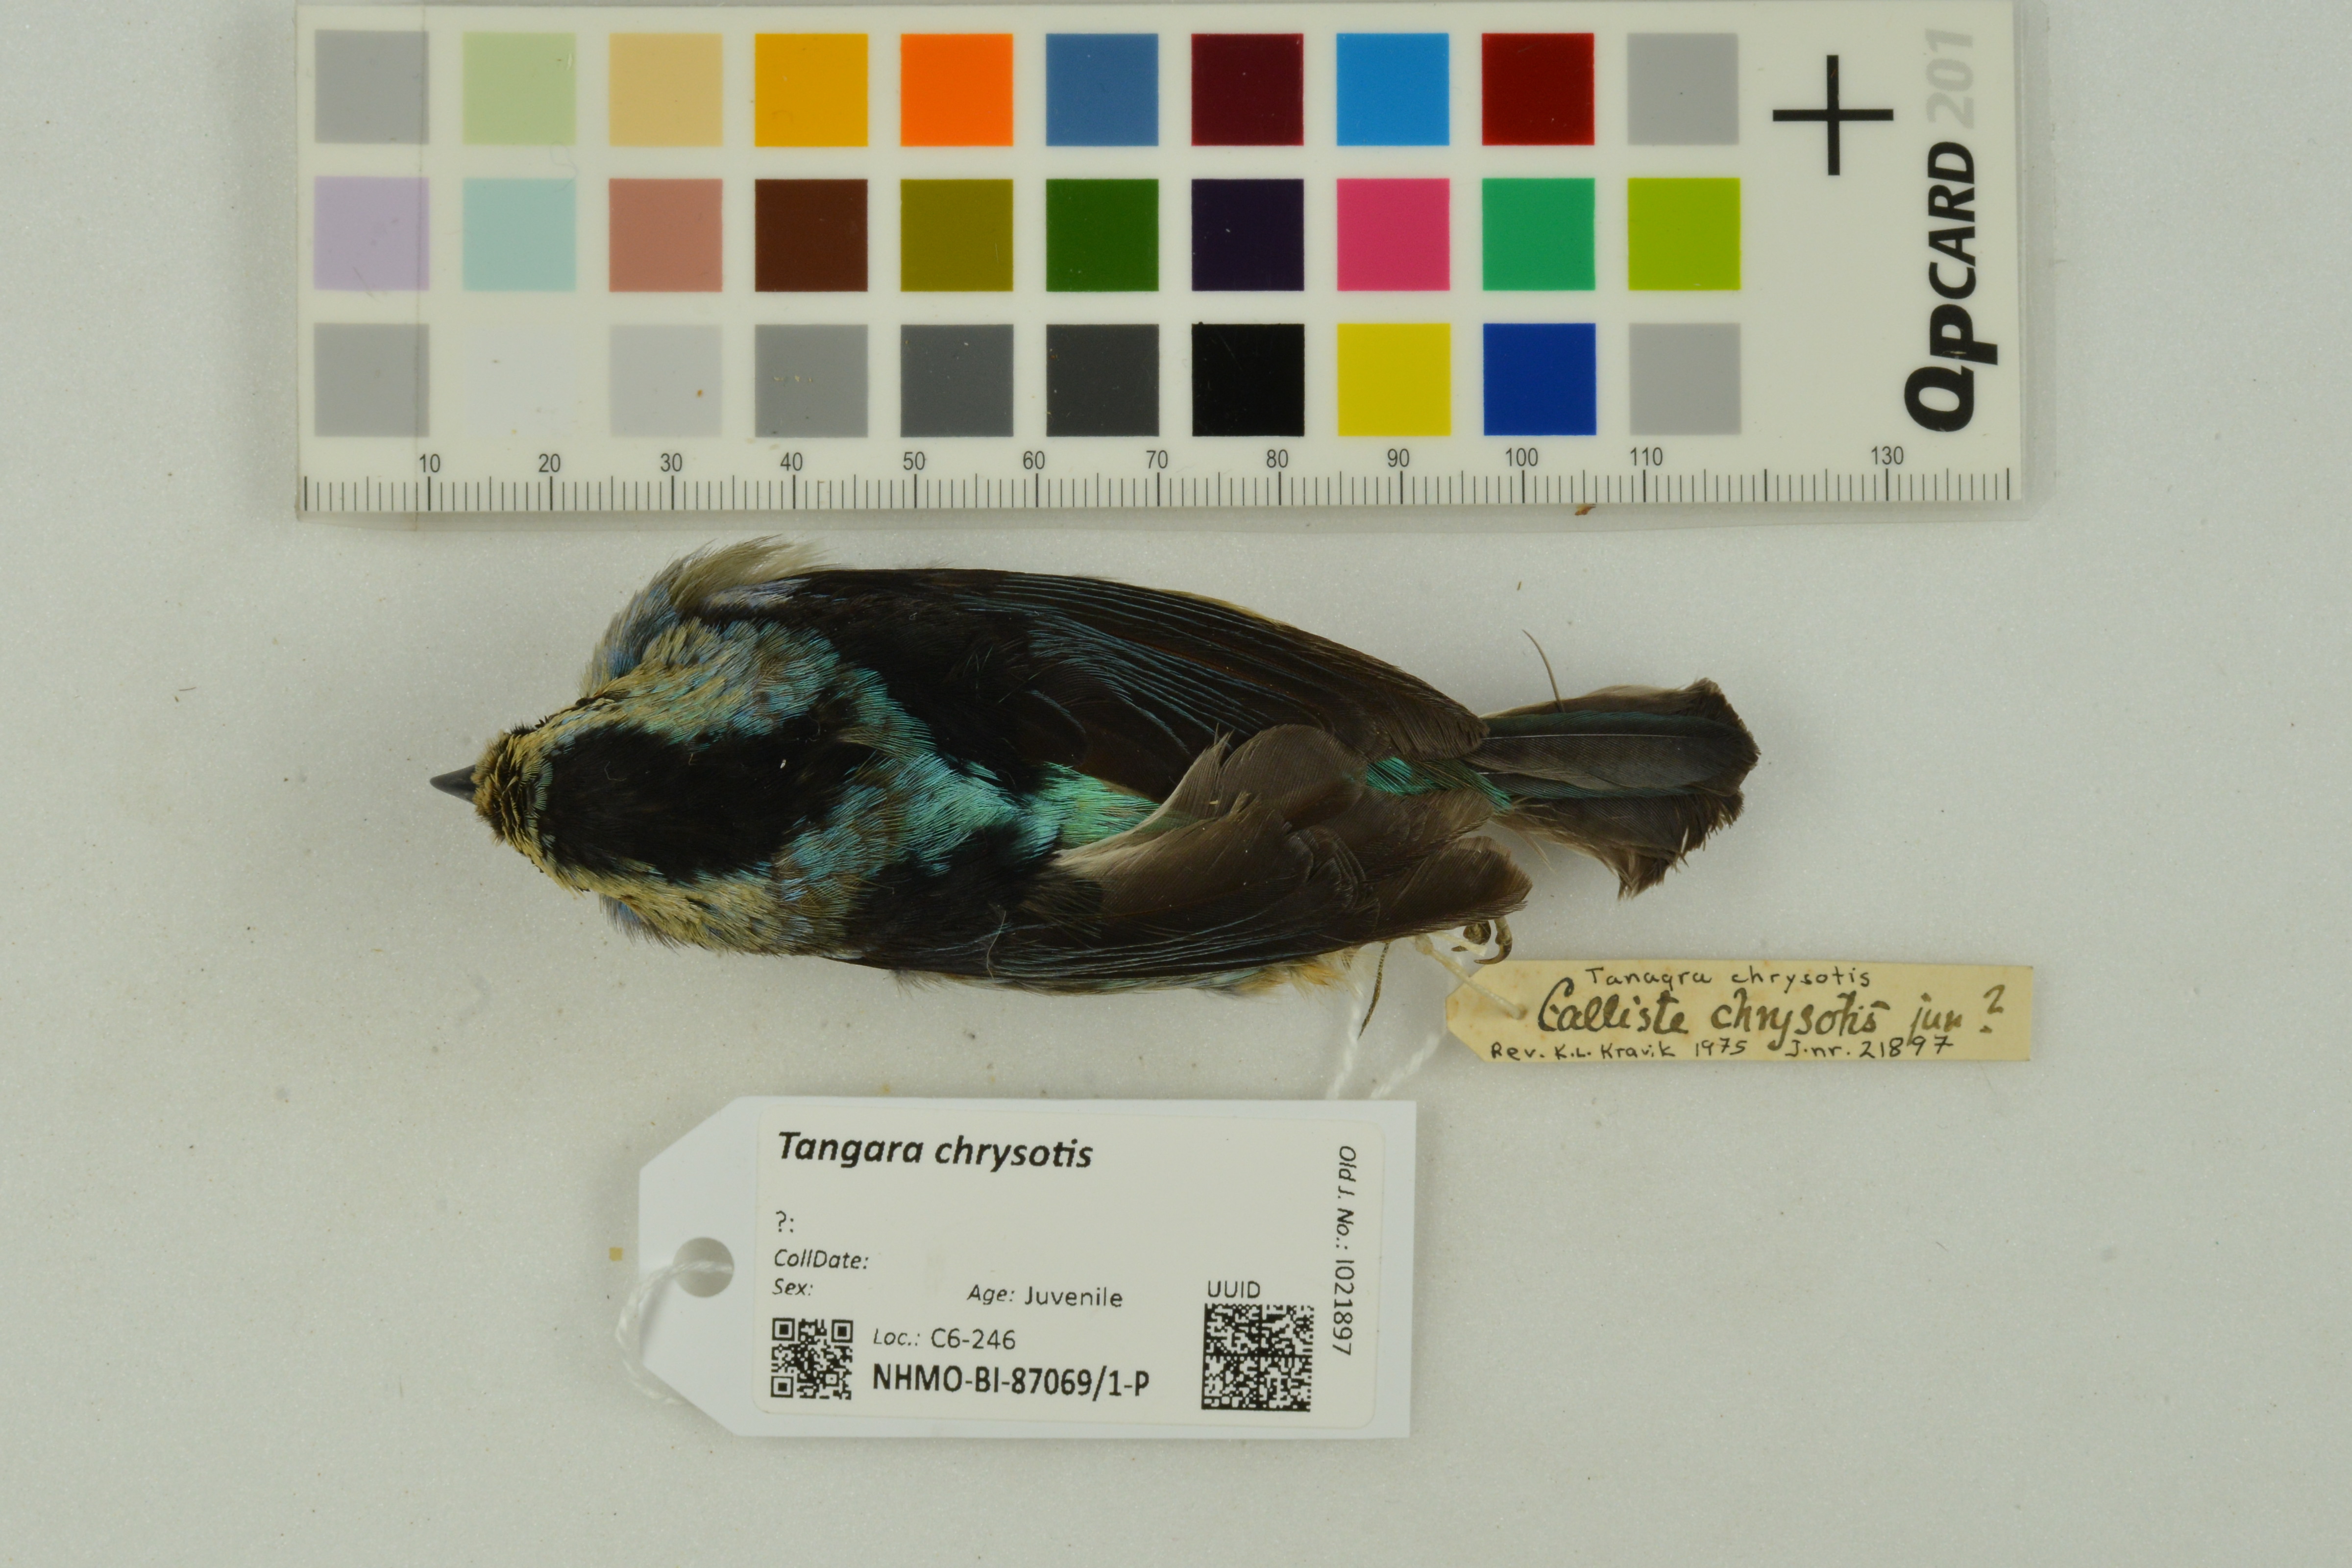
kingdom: Animalia
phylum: Chordata
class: Aves
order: Passeriformes
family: Thraupidae
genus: Tangara
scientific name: Tangara chrysotis
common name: Golden-eared tanager
